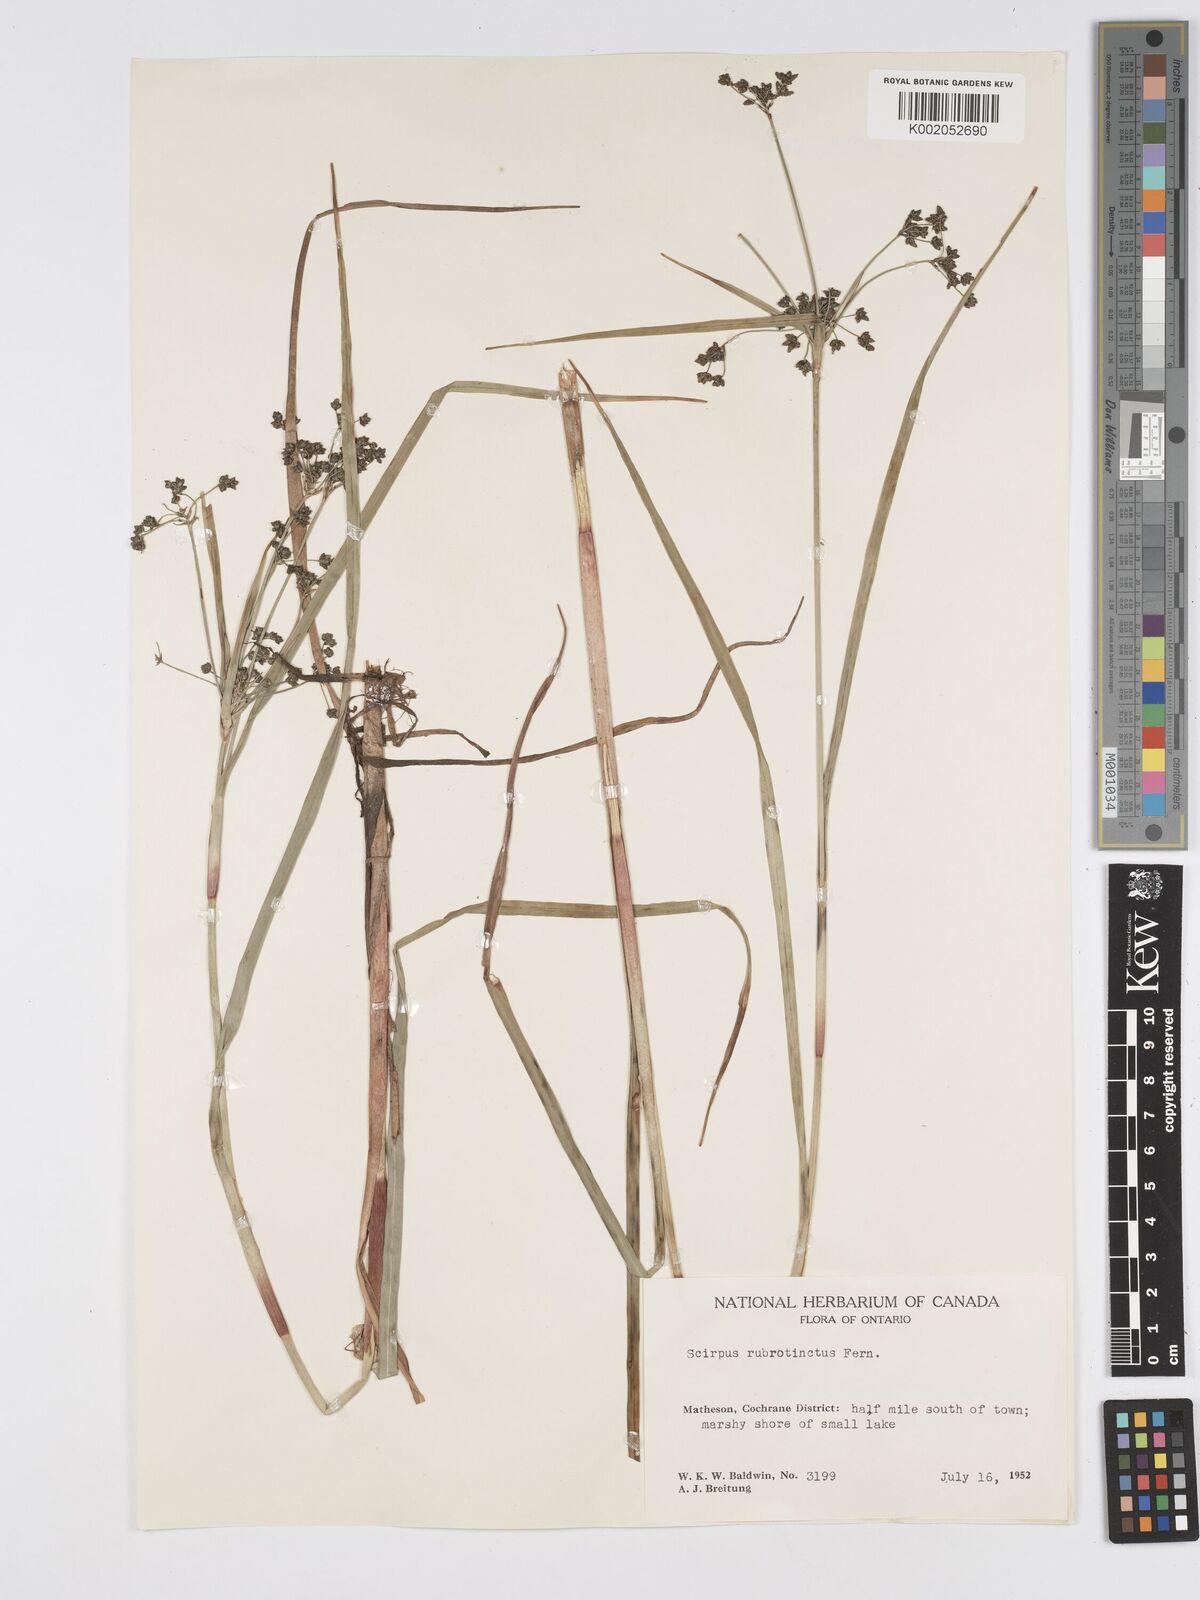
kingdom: Plantae
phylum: Tracheophyta
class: Liliopsida
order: Poales
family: Cyperaceae
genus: Scirpus
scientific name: Scirpus microcarpus
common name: Panicled bulrush
